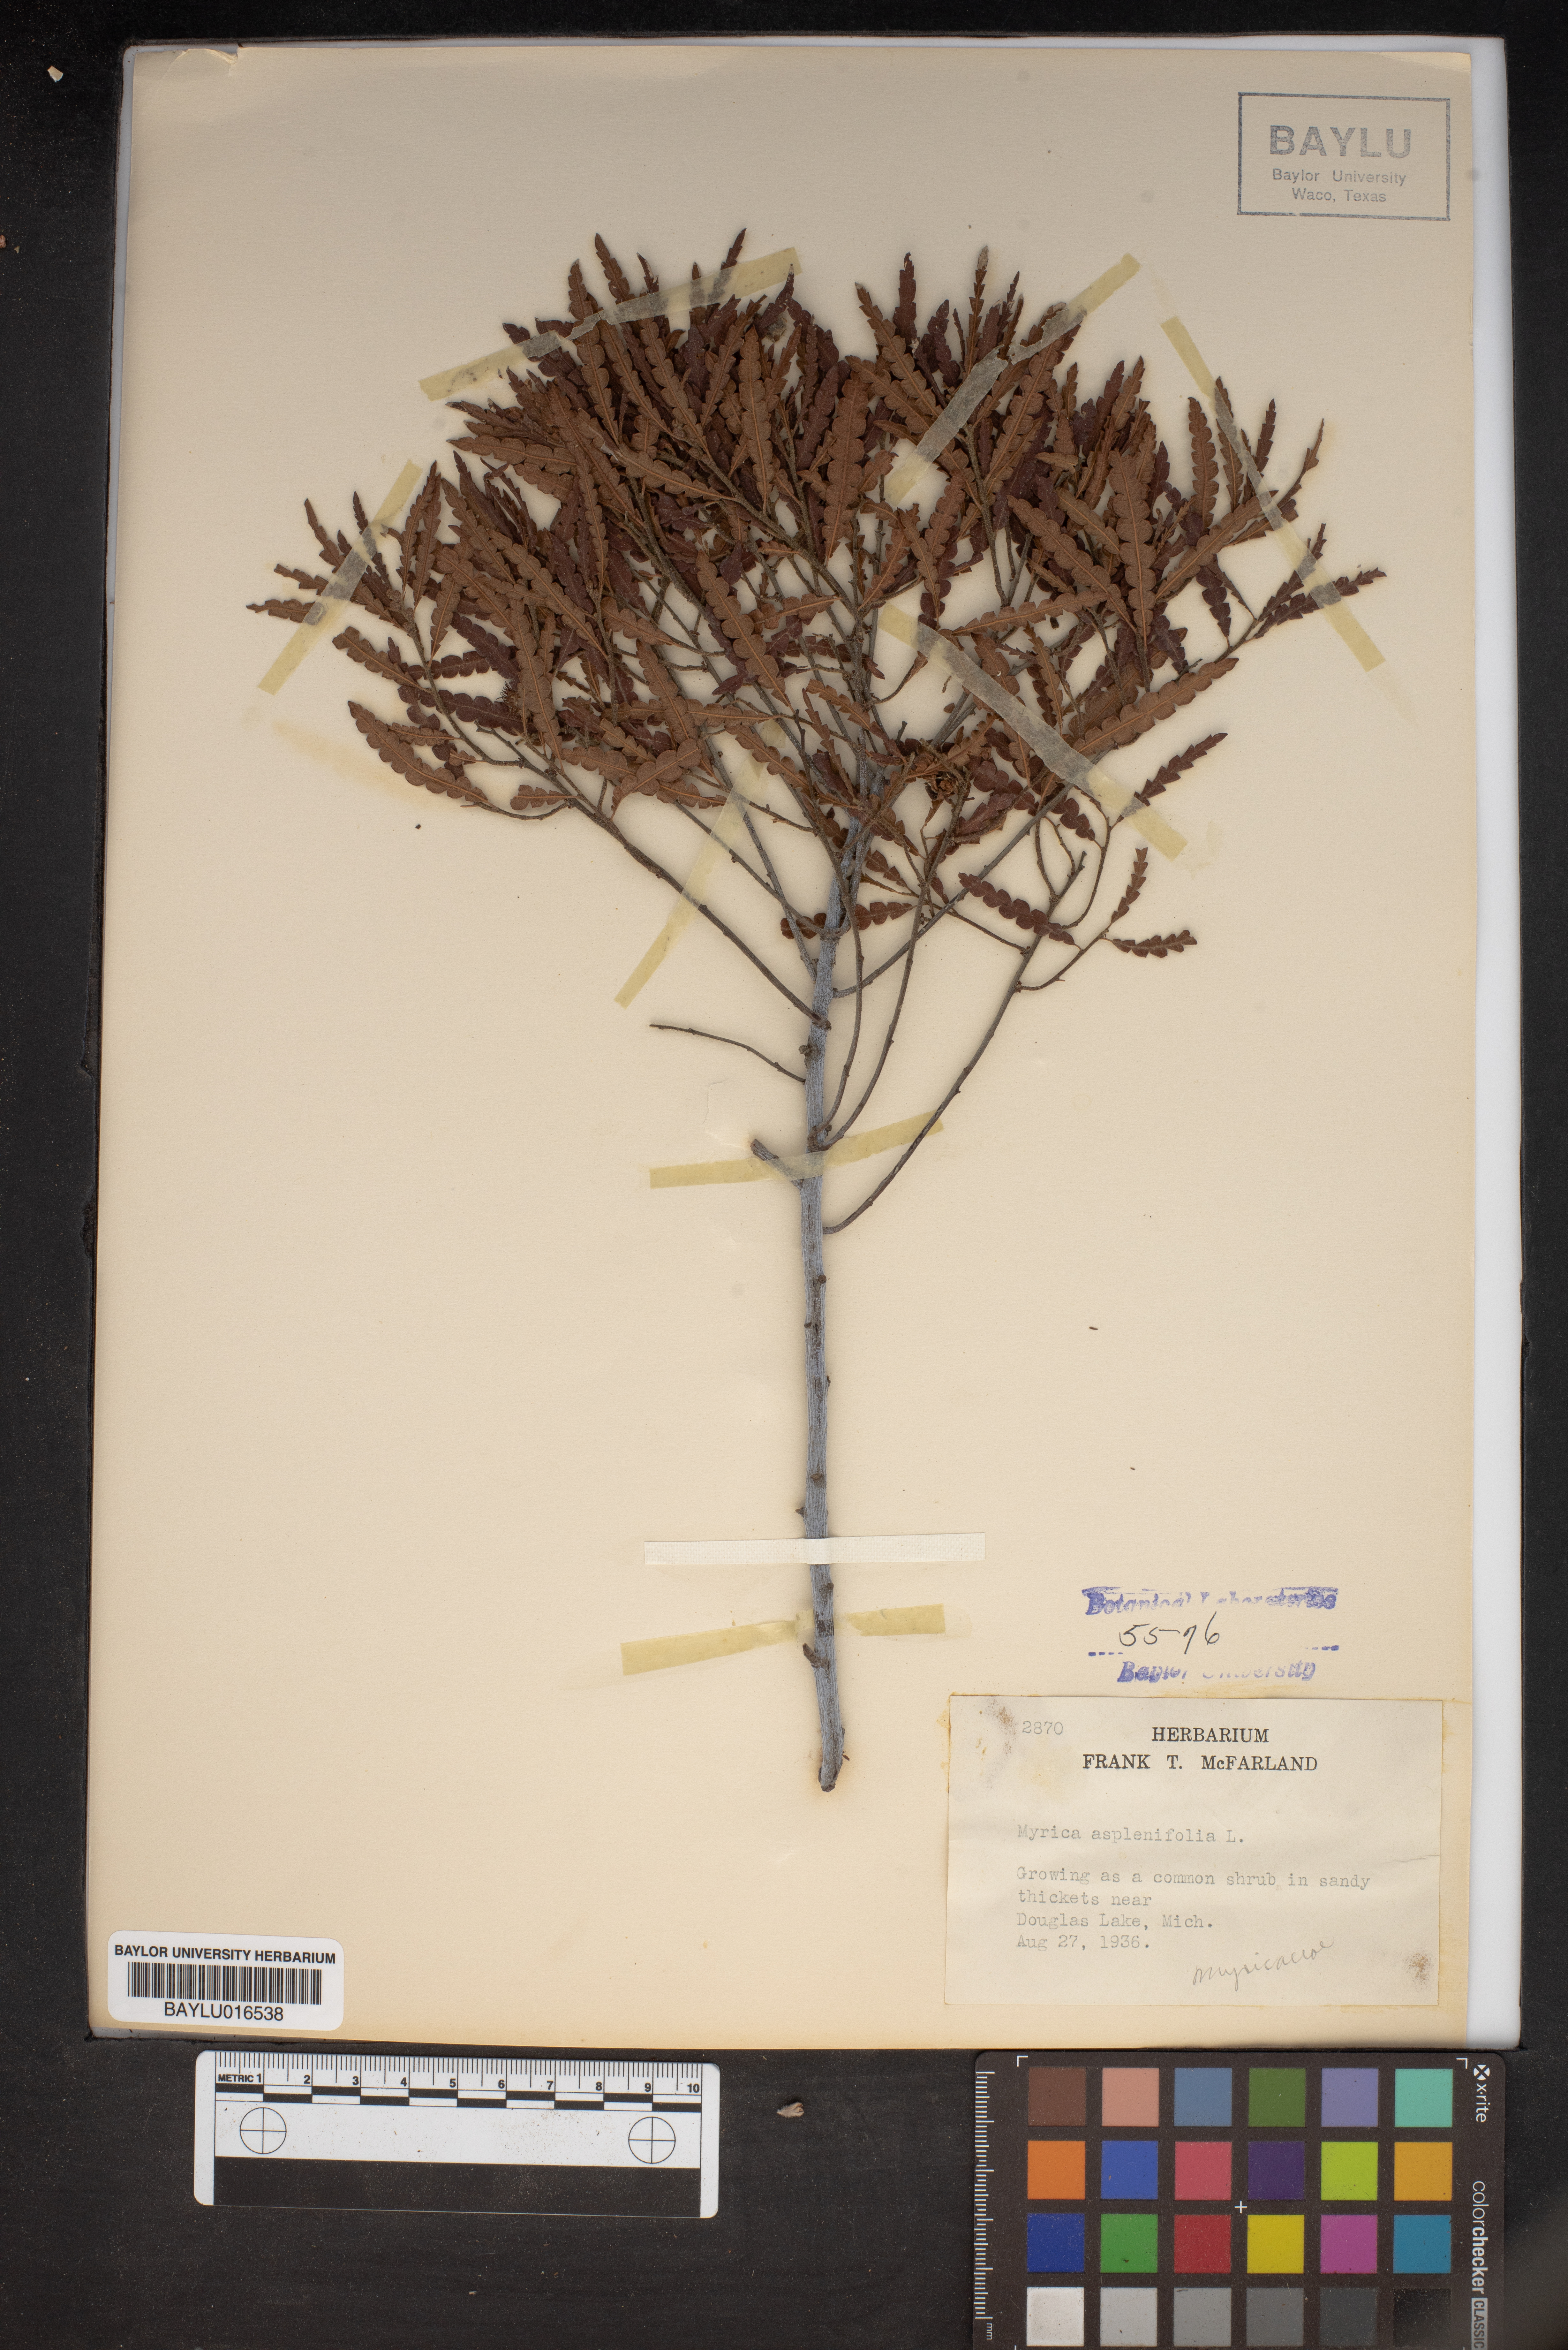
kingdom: Plantae
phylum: Tracheophyta
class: Magnoliopsida
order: Fagales
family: Myricaceae
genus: Comptonia
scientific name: Comptonia peregrina
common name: Sweet-fern
